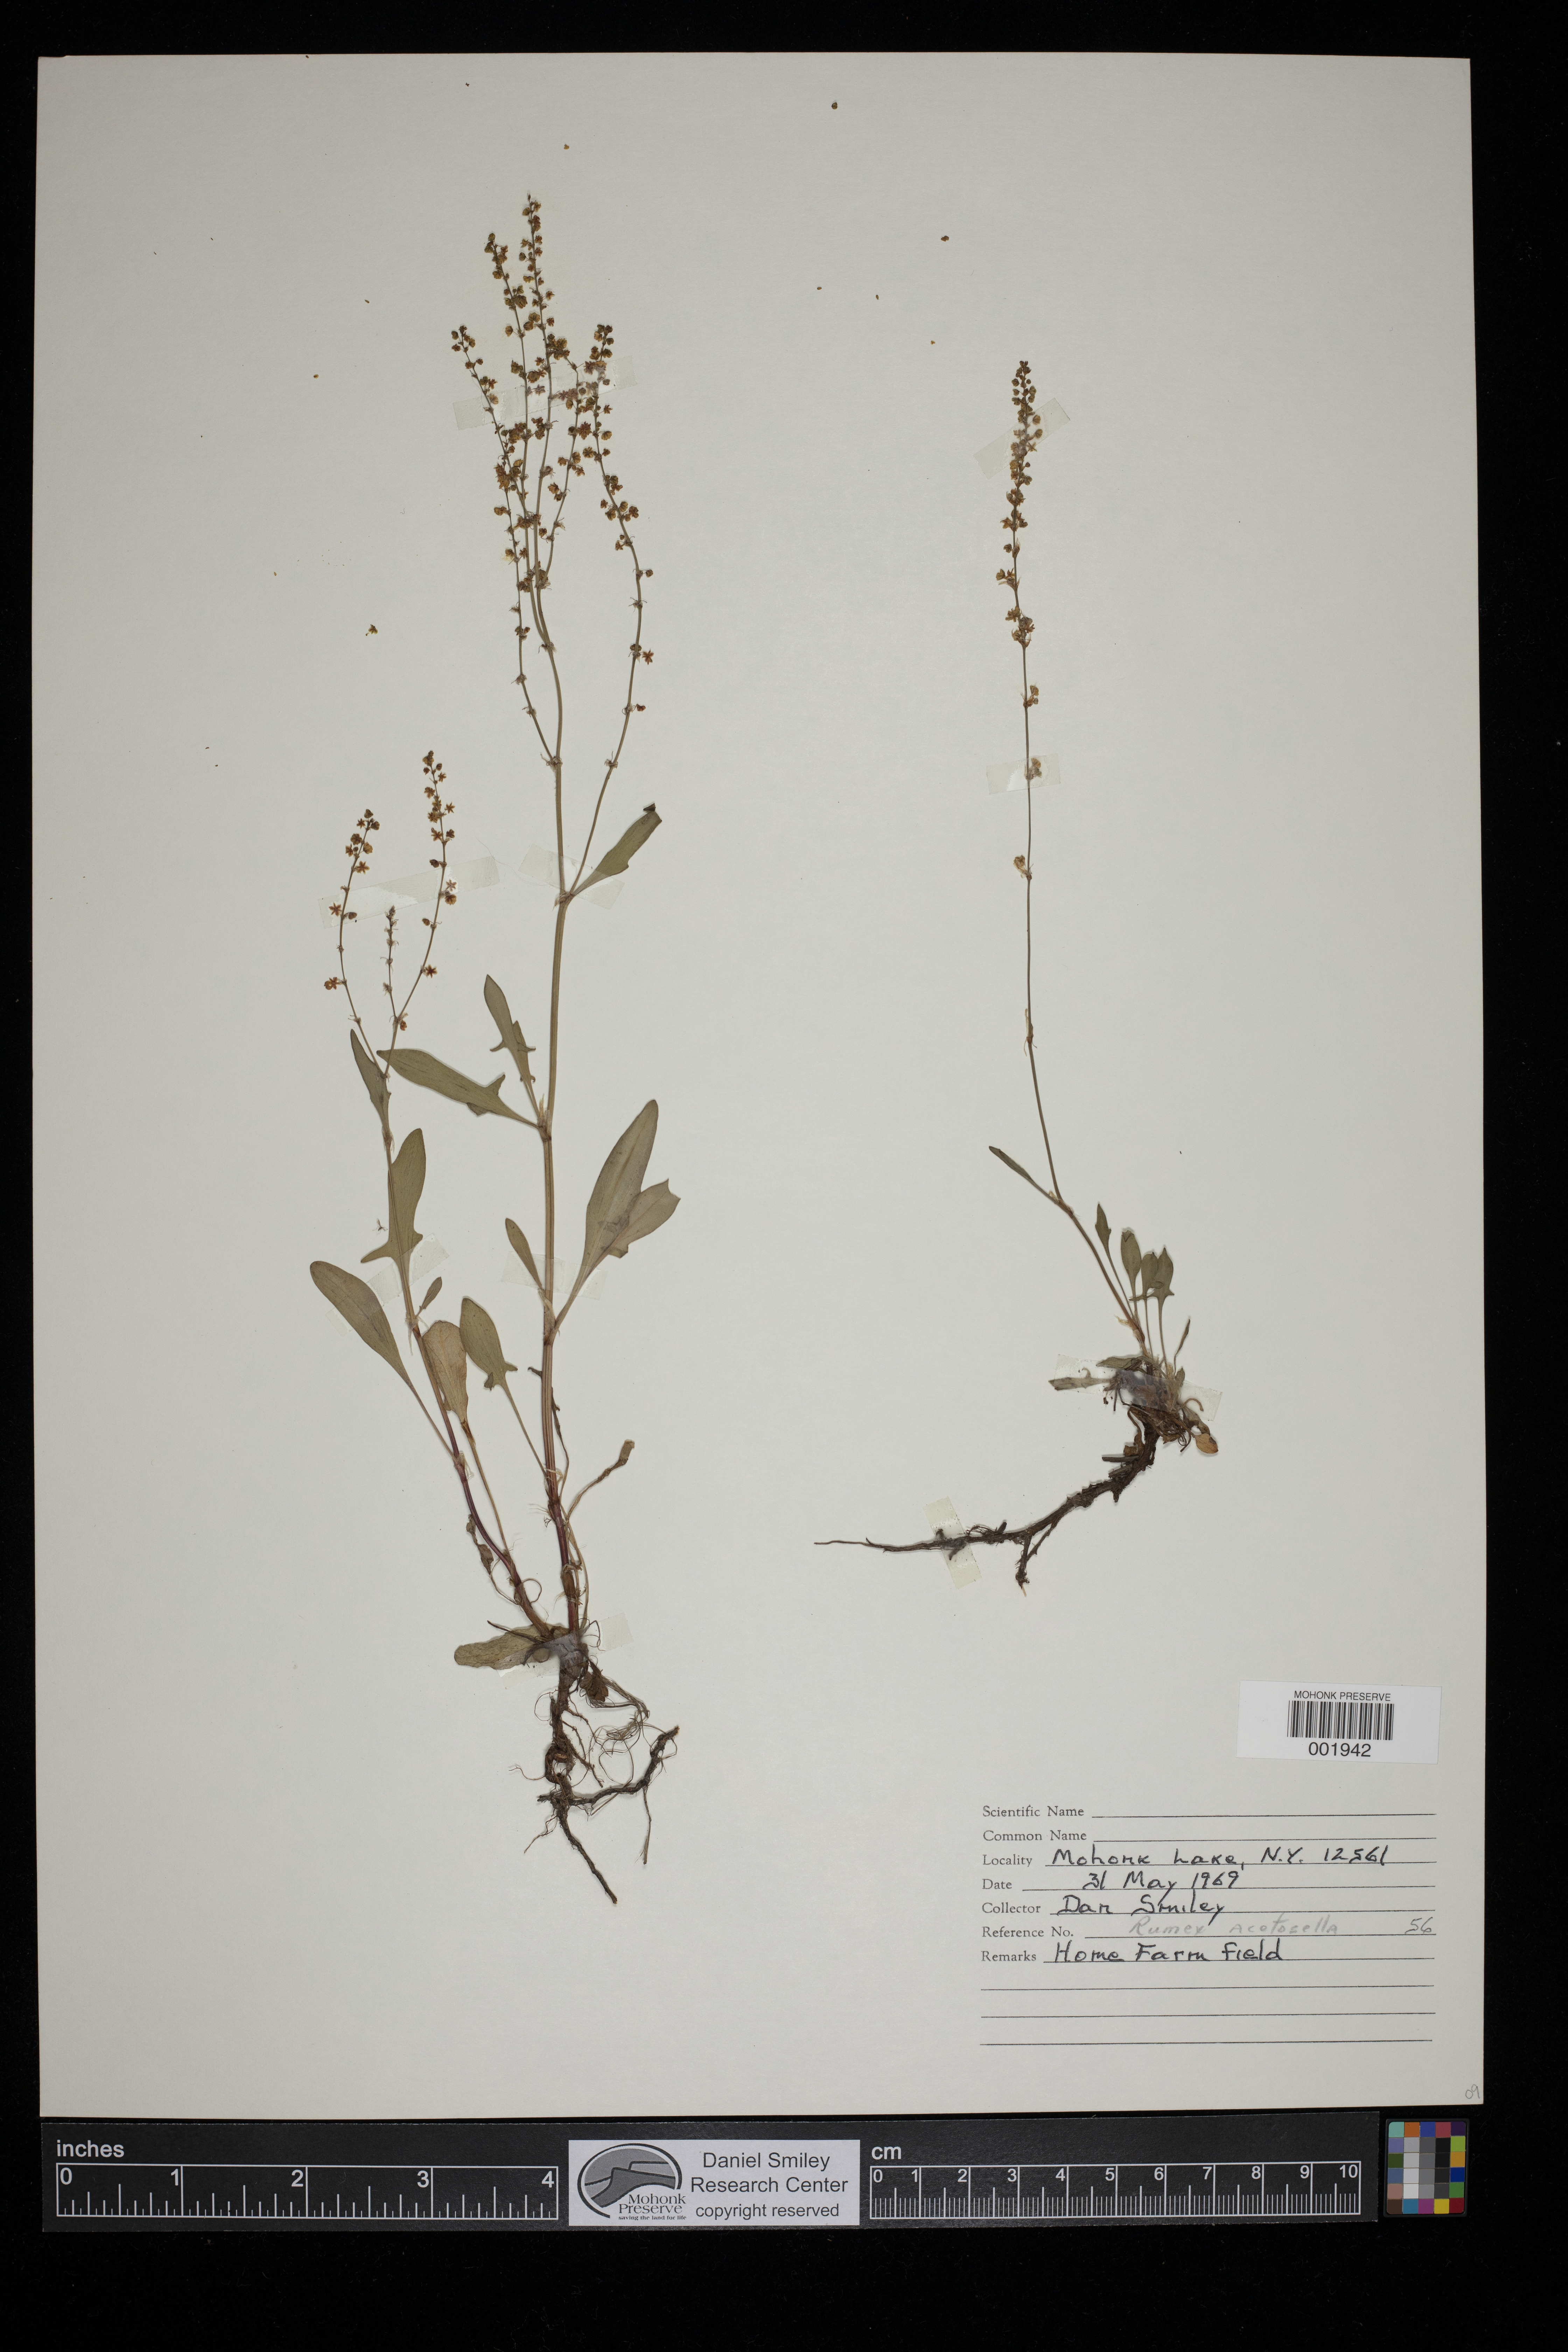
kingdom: Plantae
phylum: Tracheophyta
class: Magnoliopsida
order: Caryophyllales
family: Polygonaceae
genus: Rumex
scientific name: Rumex acetosella
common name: Common sheep sorrel
